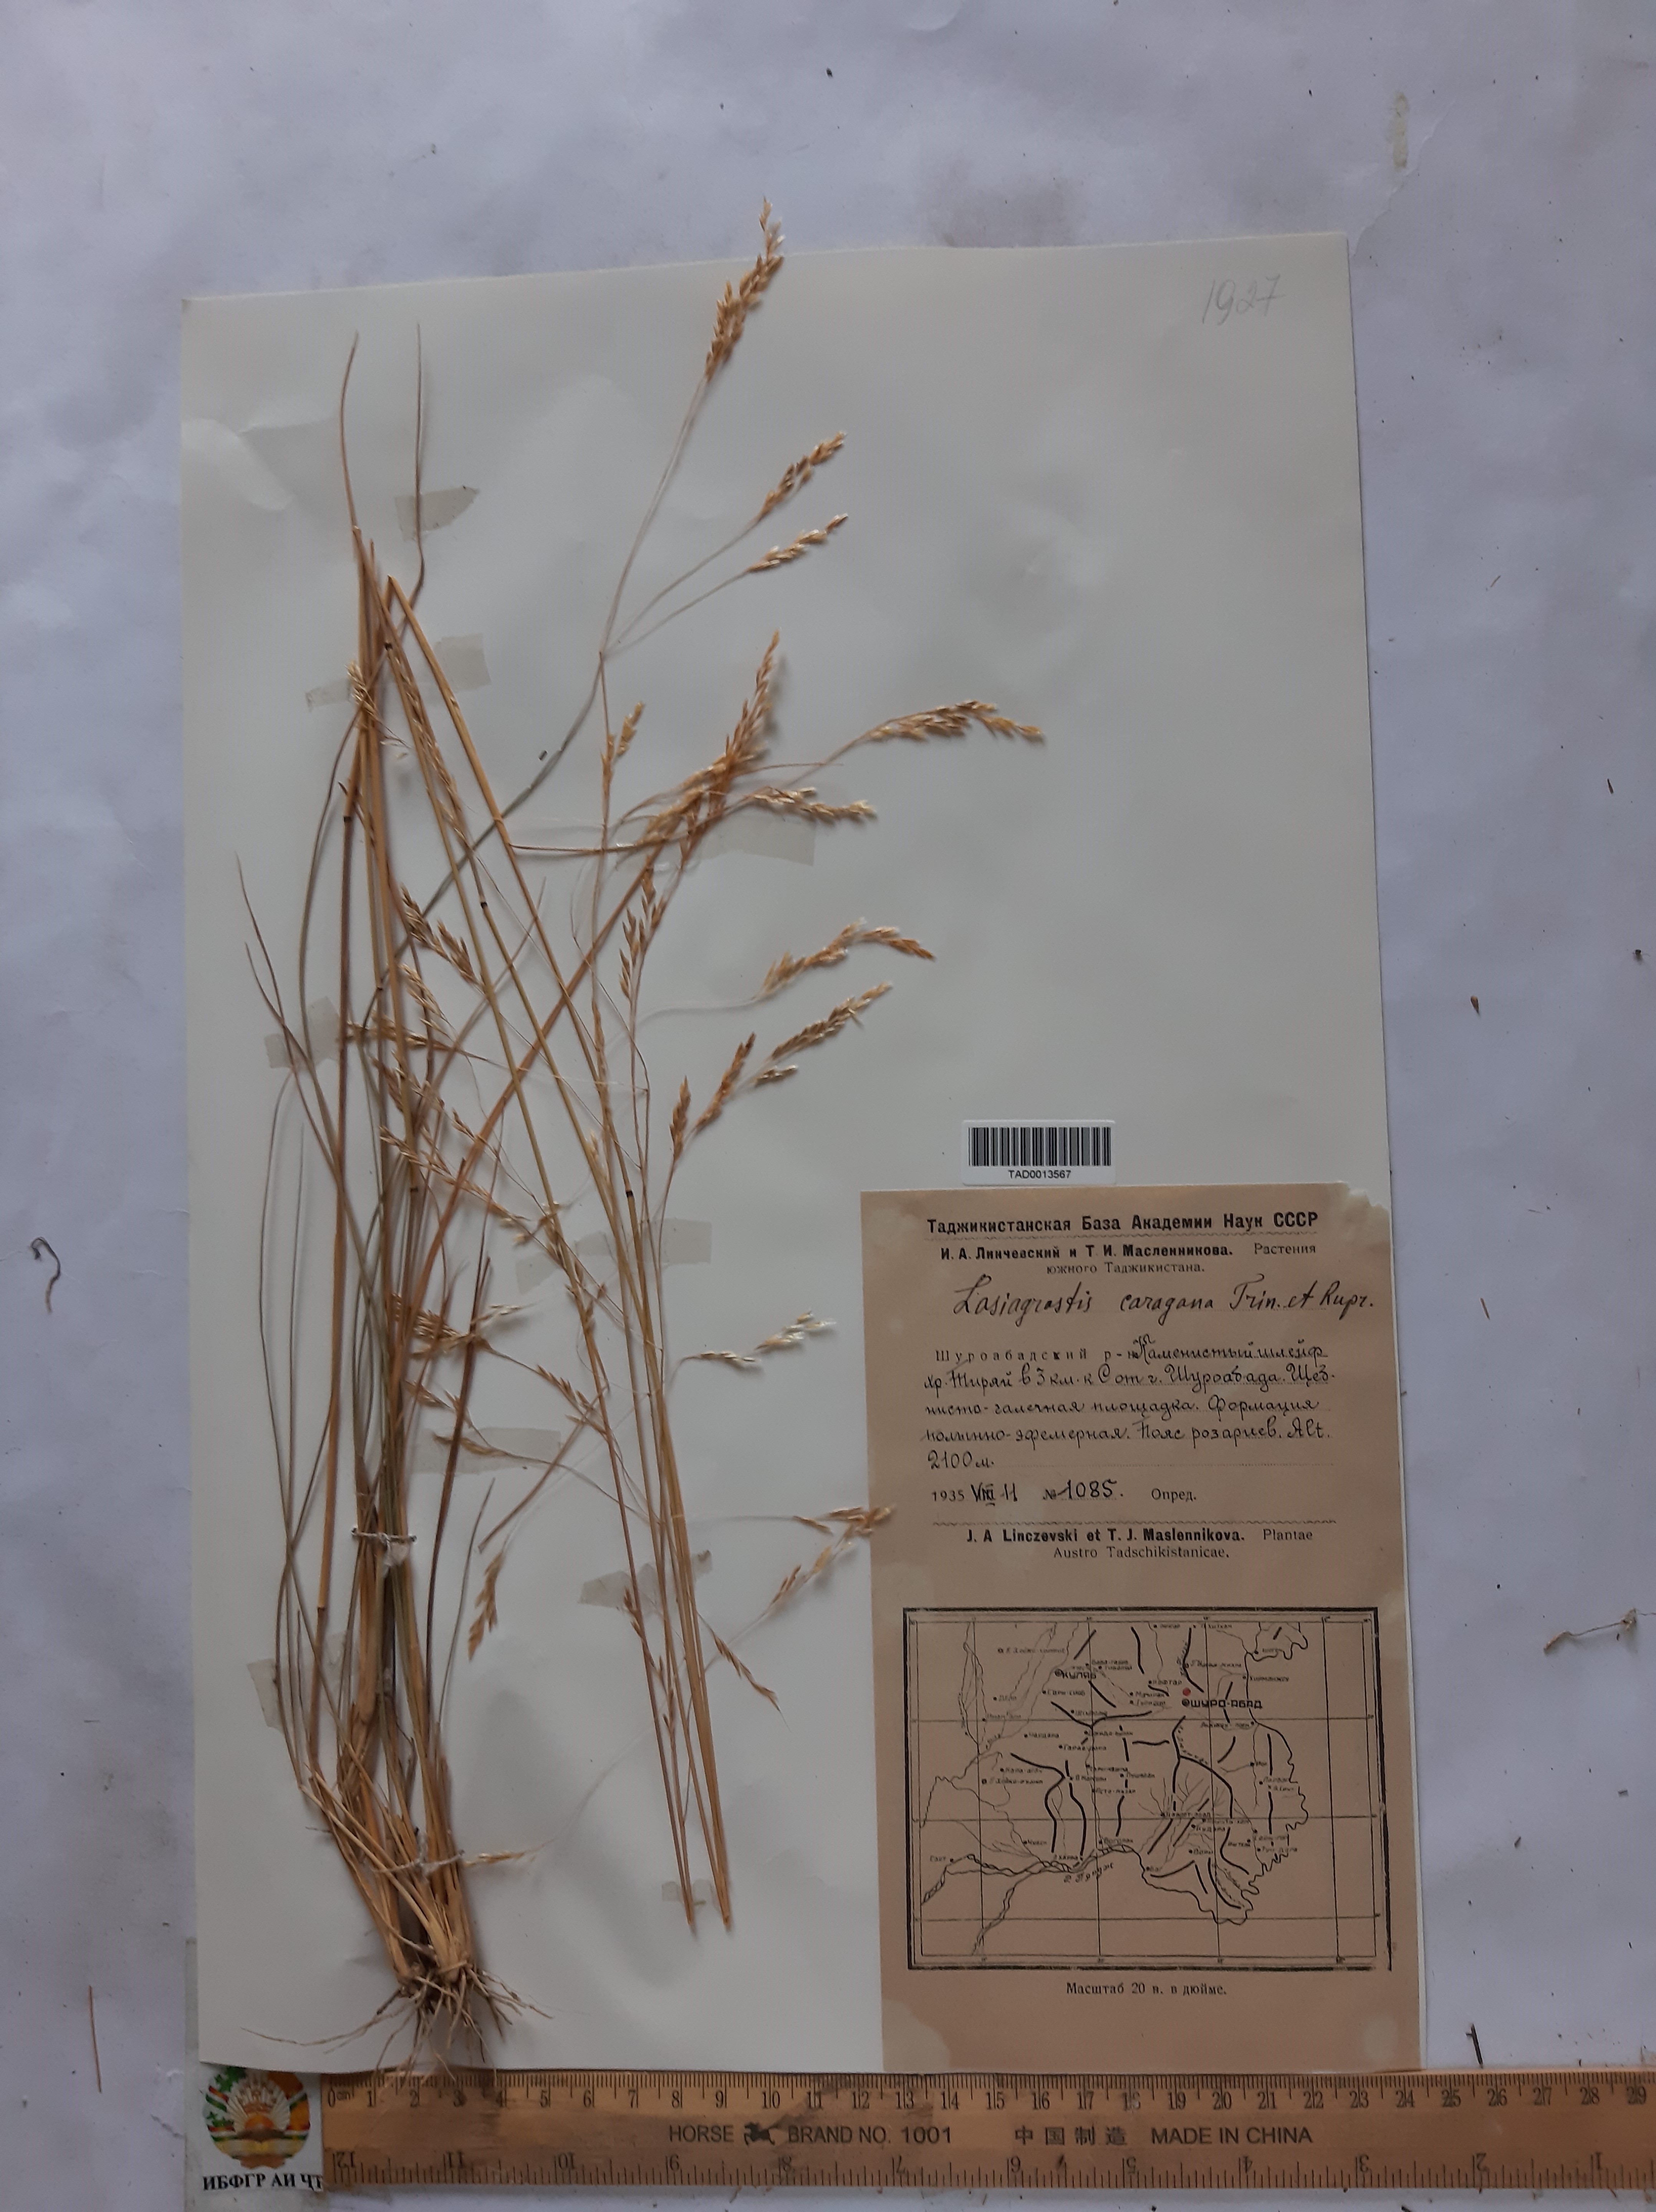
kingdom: Plantae
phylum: Tracheophyta
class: Liliopsida
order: Poales
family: Poaceae
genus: Stipa
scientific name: Stipa conferta
